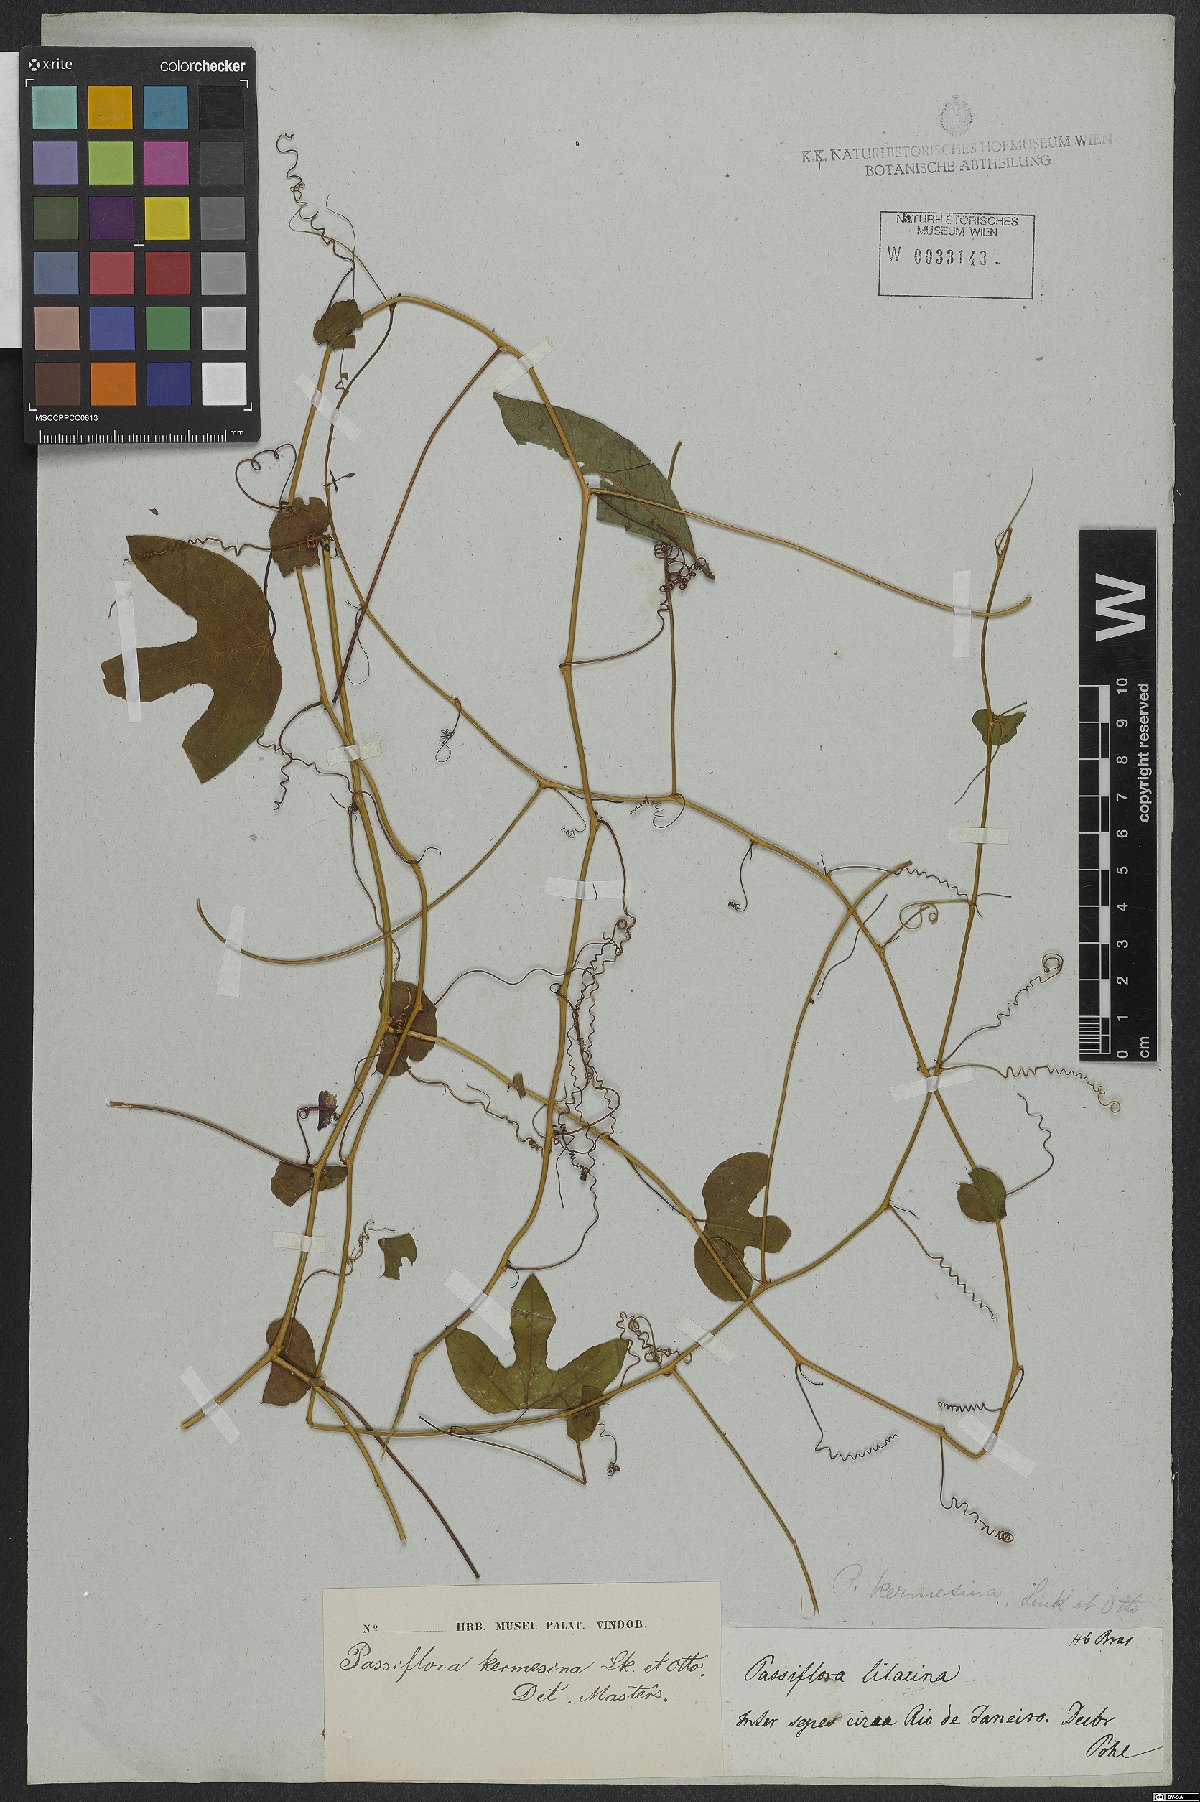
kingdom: Plantae
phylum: Tracheophyta
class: Magnoliopsida
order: Malpighiales
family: Passifloraceae
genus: Passiflora
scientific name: Passiflora kermesina
